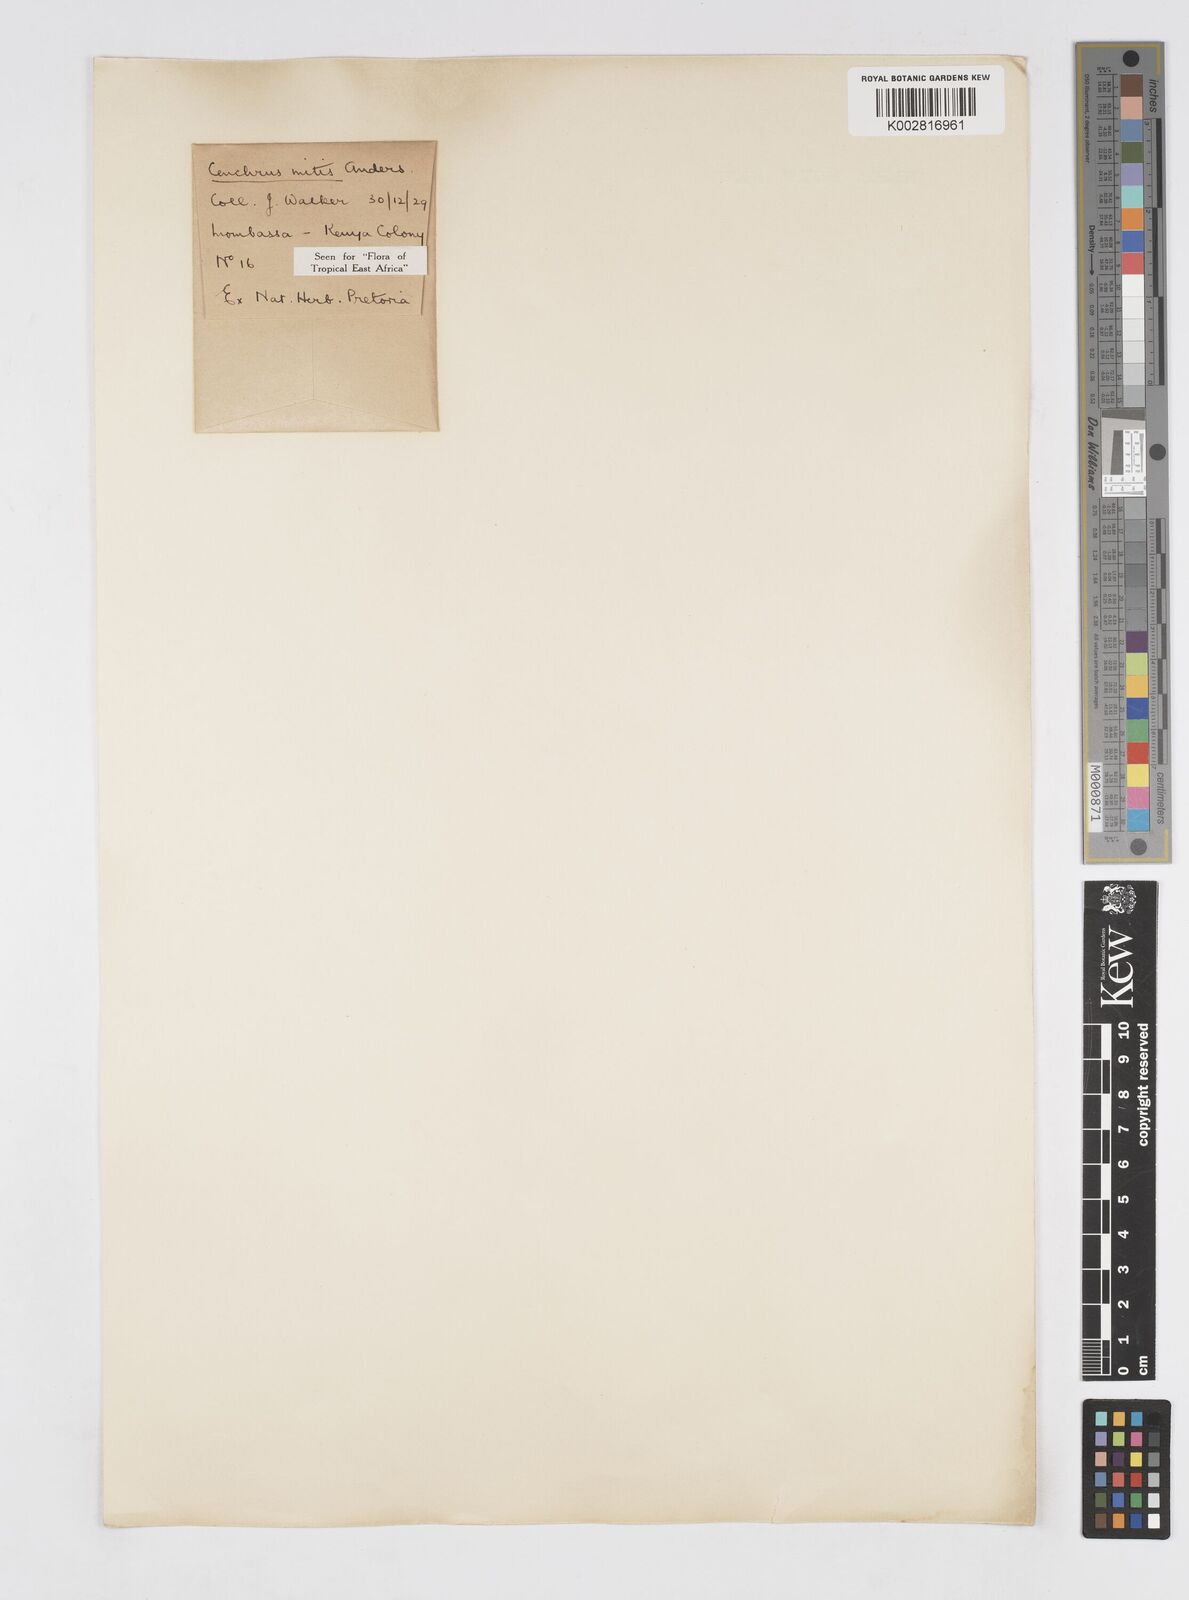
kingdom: Plantae
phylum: Tracheophyta
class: Liliopsida
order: Poales
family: Poaceae
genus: Cenchrus
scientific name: Cenchrus mitis
